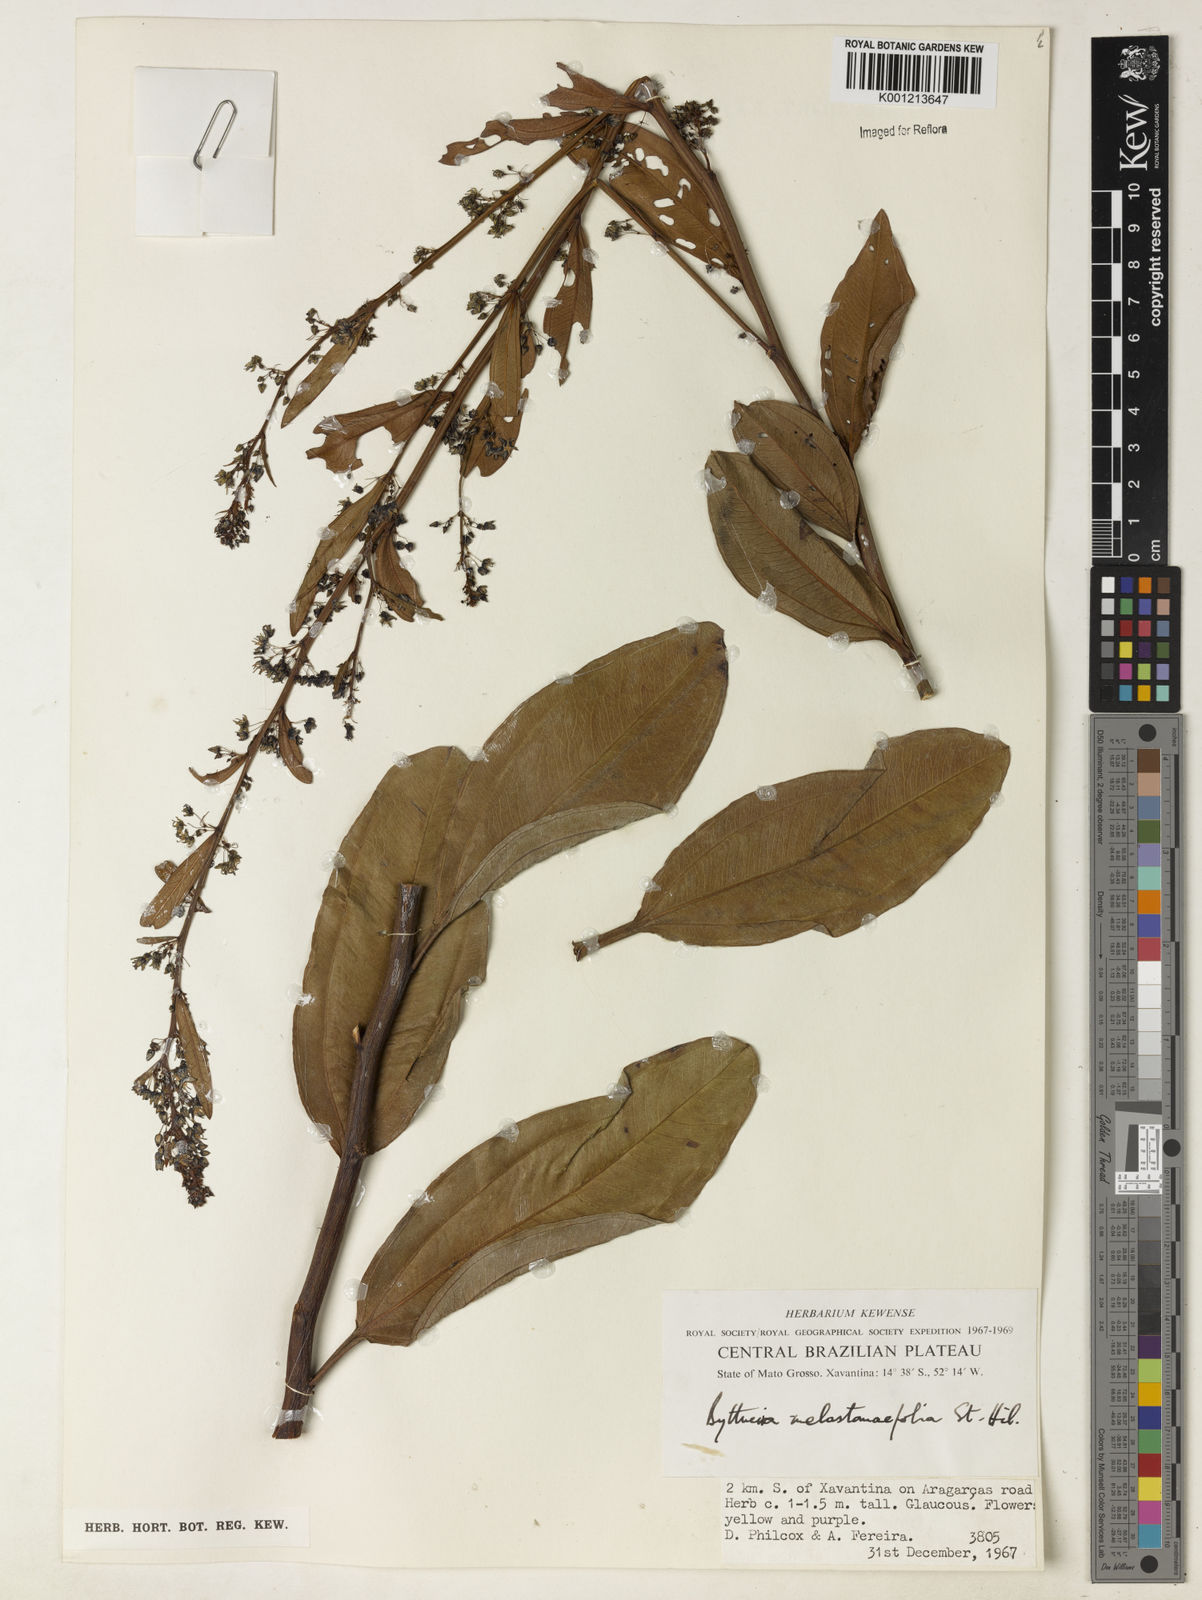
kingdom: Plantae
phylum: Tracheophyta
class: Magnoliopsida
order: Malvales
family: Malvaceae
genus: Byttneria
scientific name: Byttneria melastomifolia
